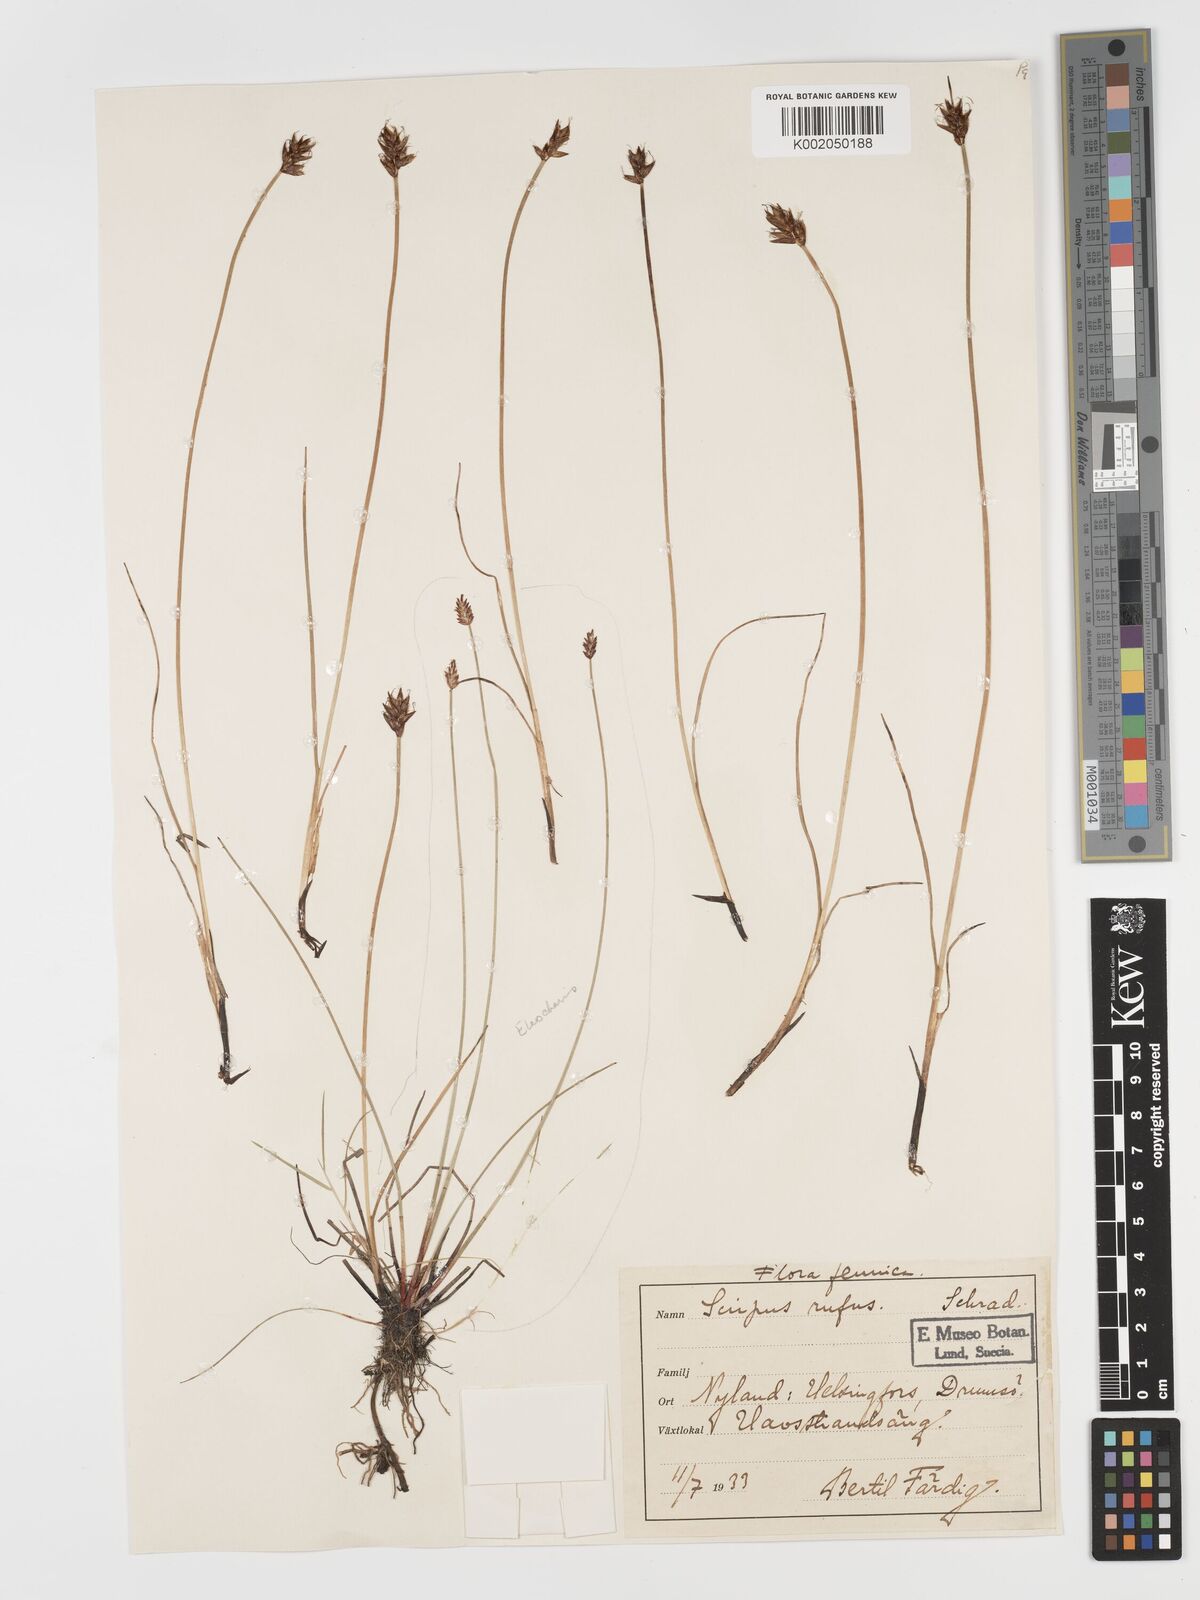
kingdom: Plantae
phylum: Tracheophyta
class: Liliopsida
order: Poales
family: Cyperaceae
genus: Blysmus
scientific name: Blysmus rufus
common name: Saltmarsh flat-sedge
